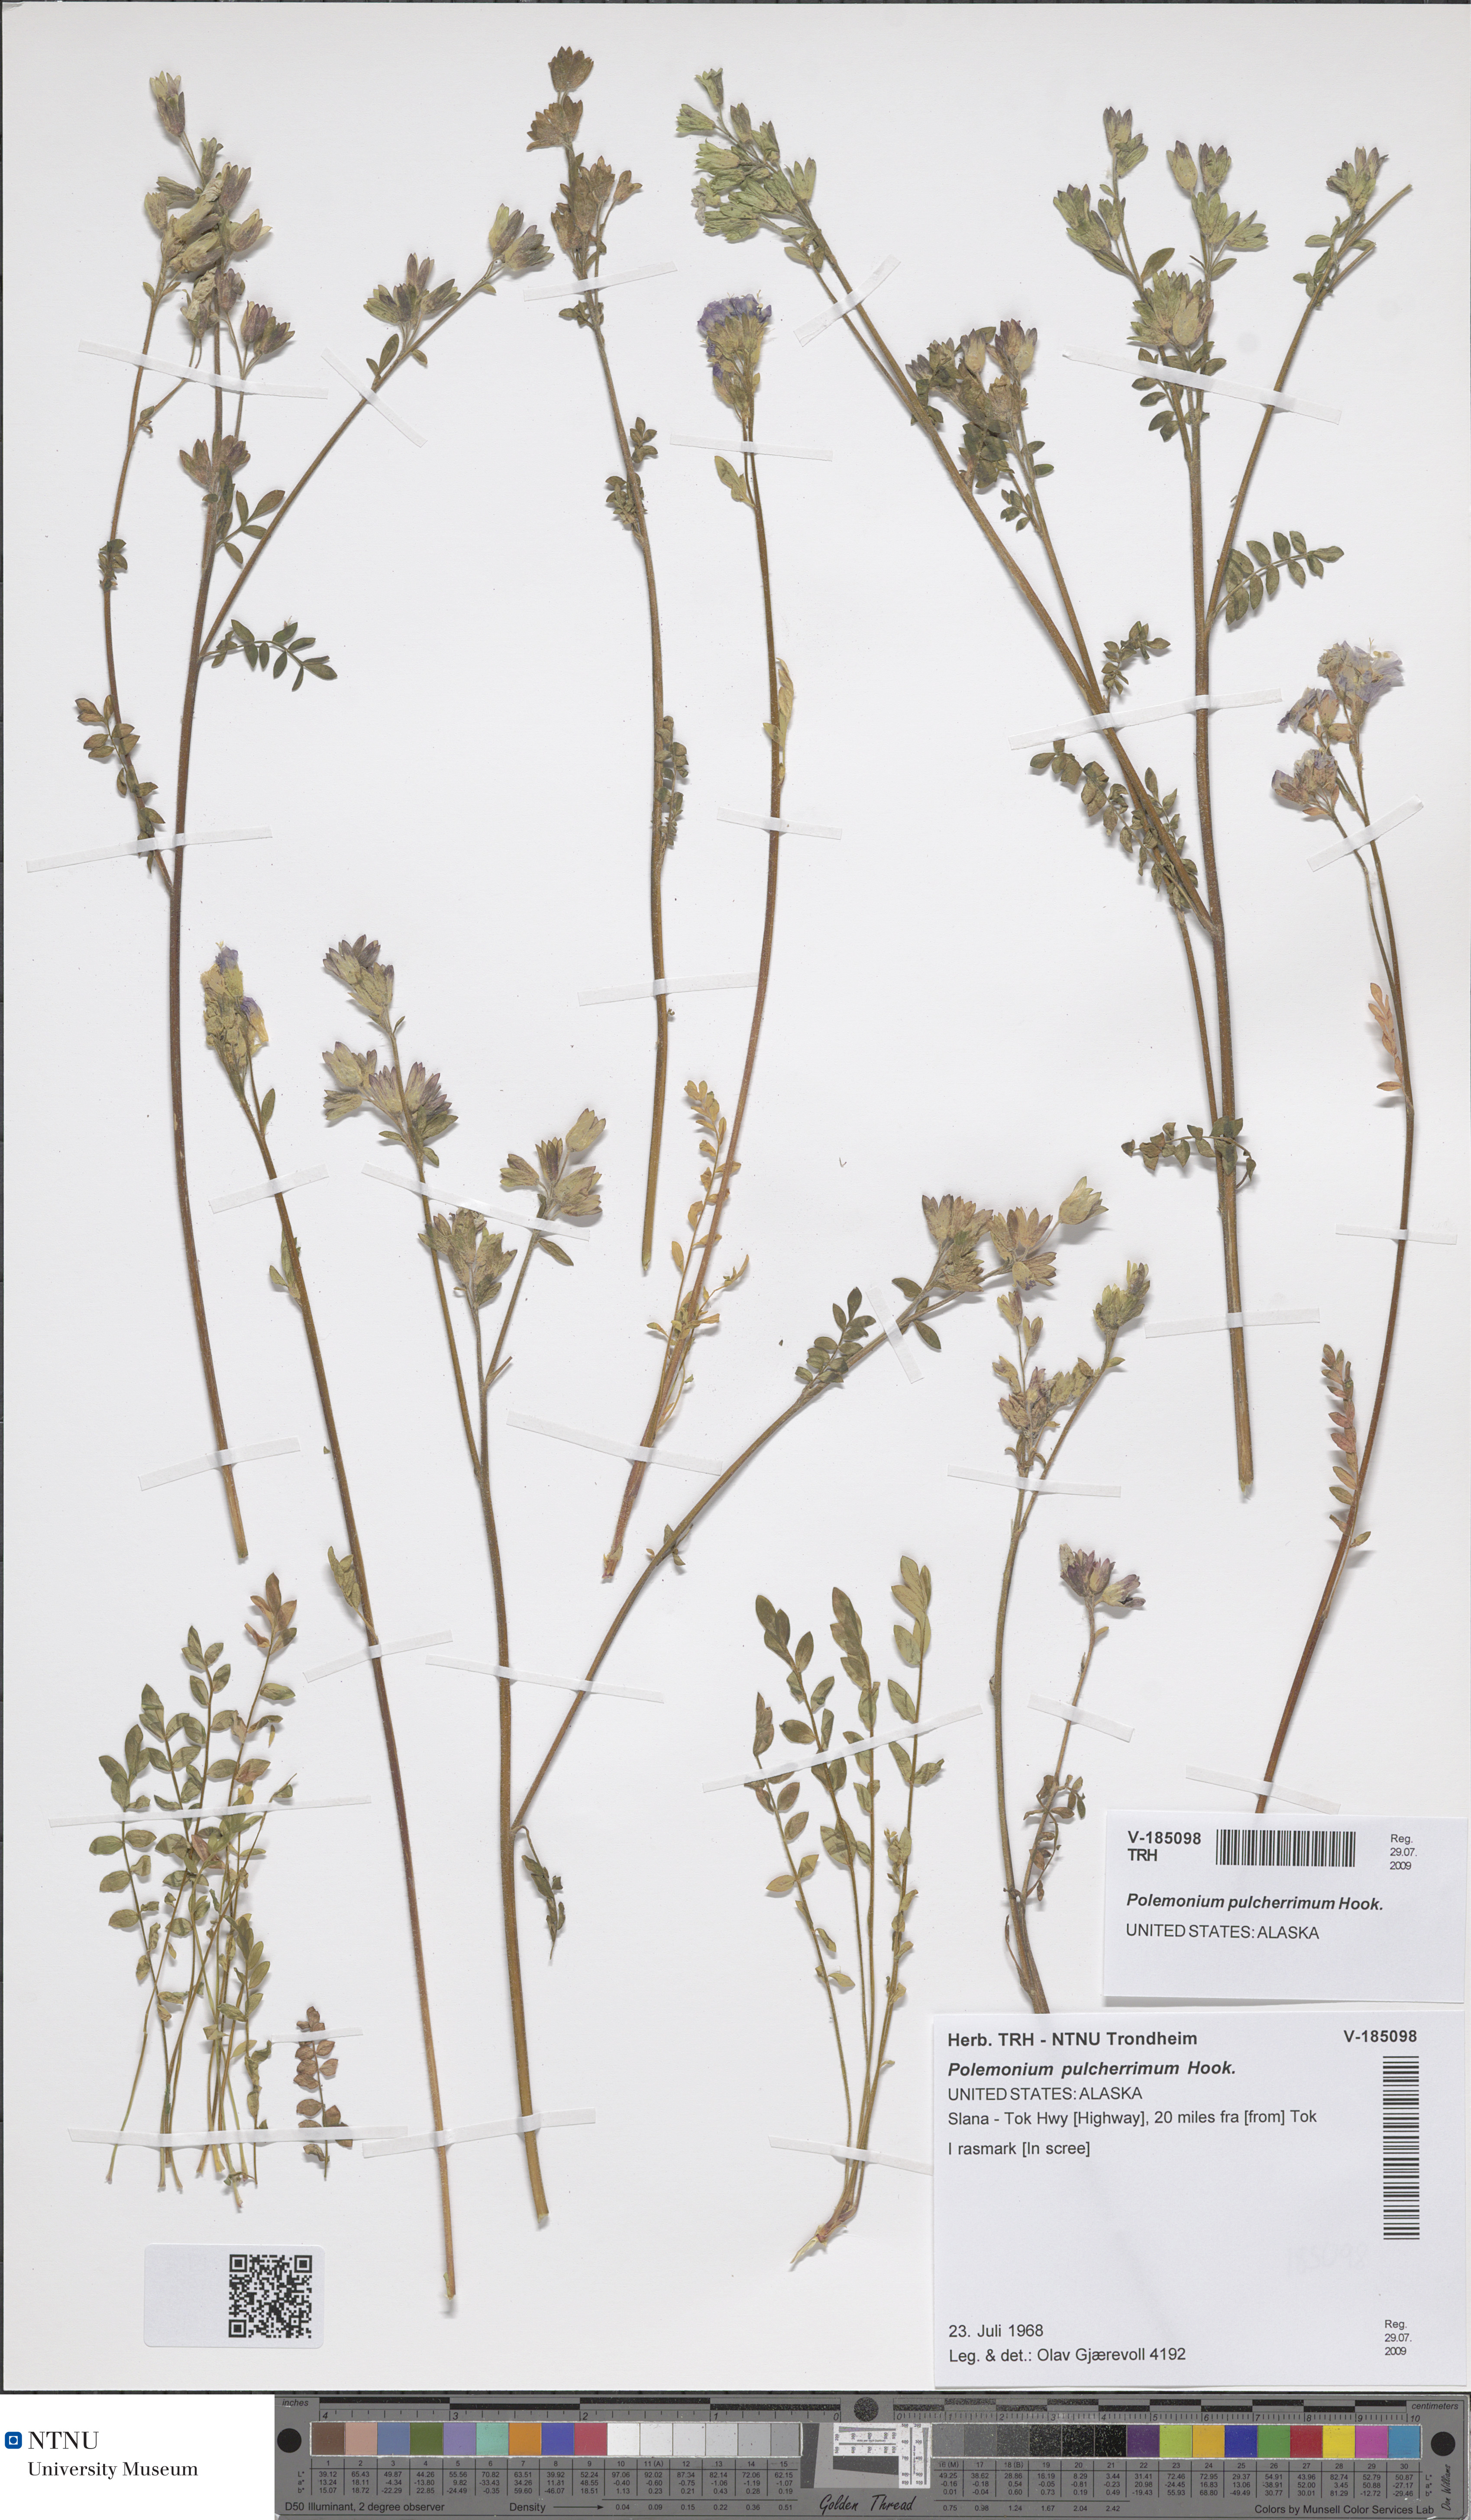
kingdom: Plantae
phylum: Tracheophyta
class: Magnoliopsida
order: Ericales
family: Polemoniaceae
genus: Polemonium
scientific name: Polemonium pulcherrimum
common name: Short jacob's-ladder
